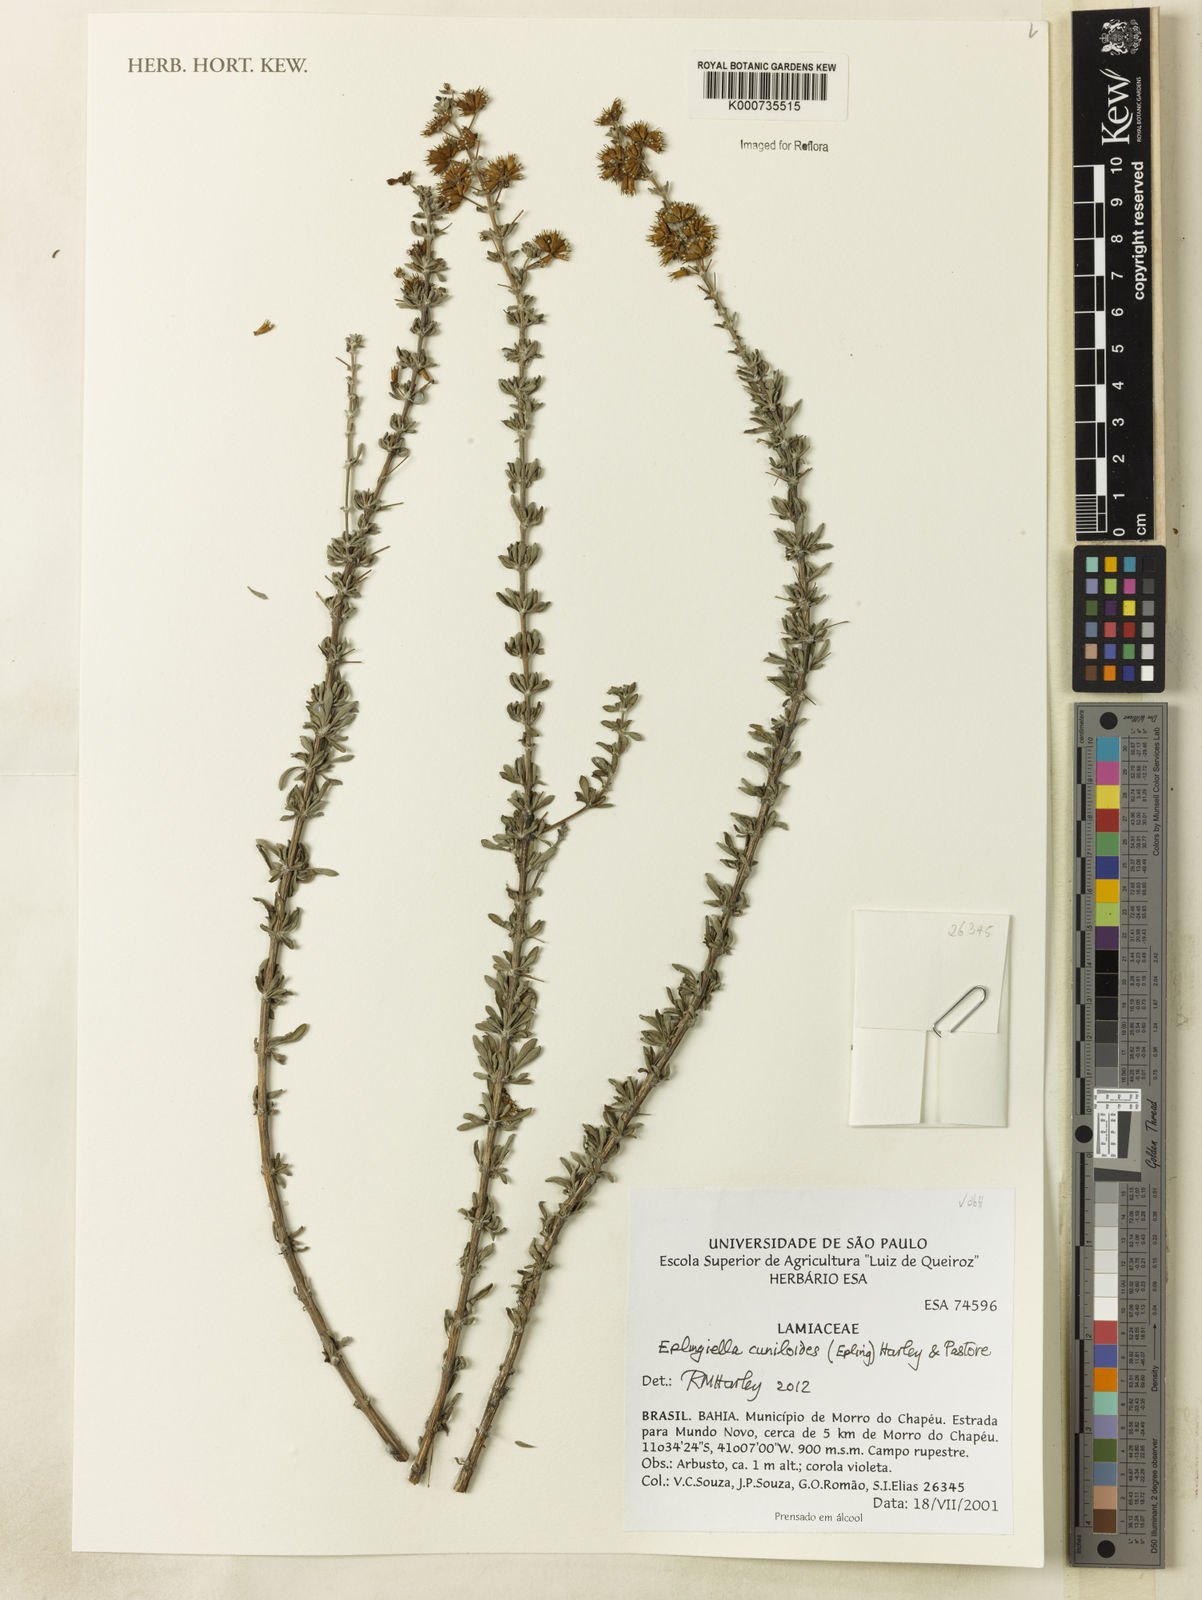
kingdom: Plantae
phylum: Tracheophyta
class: Magnoliopsida
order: Lamiales
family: Lamiaceae
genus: Eplingiella
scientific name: Eplingiella cuniloides
